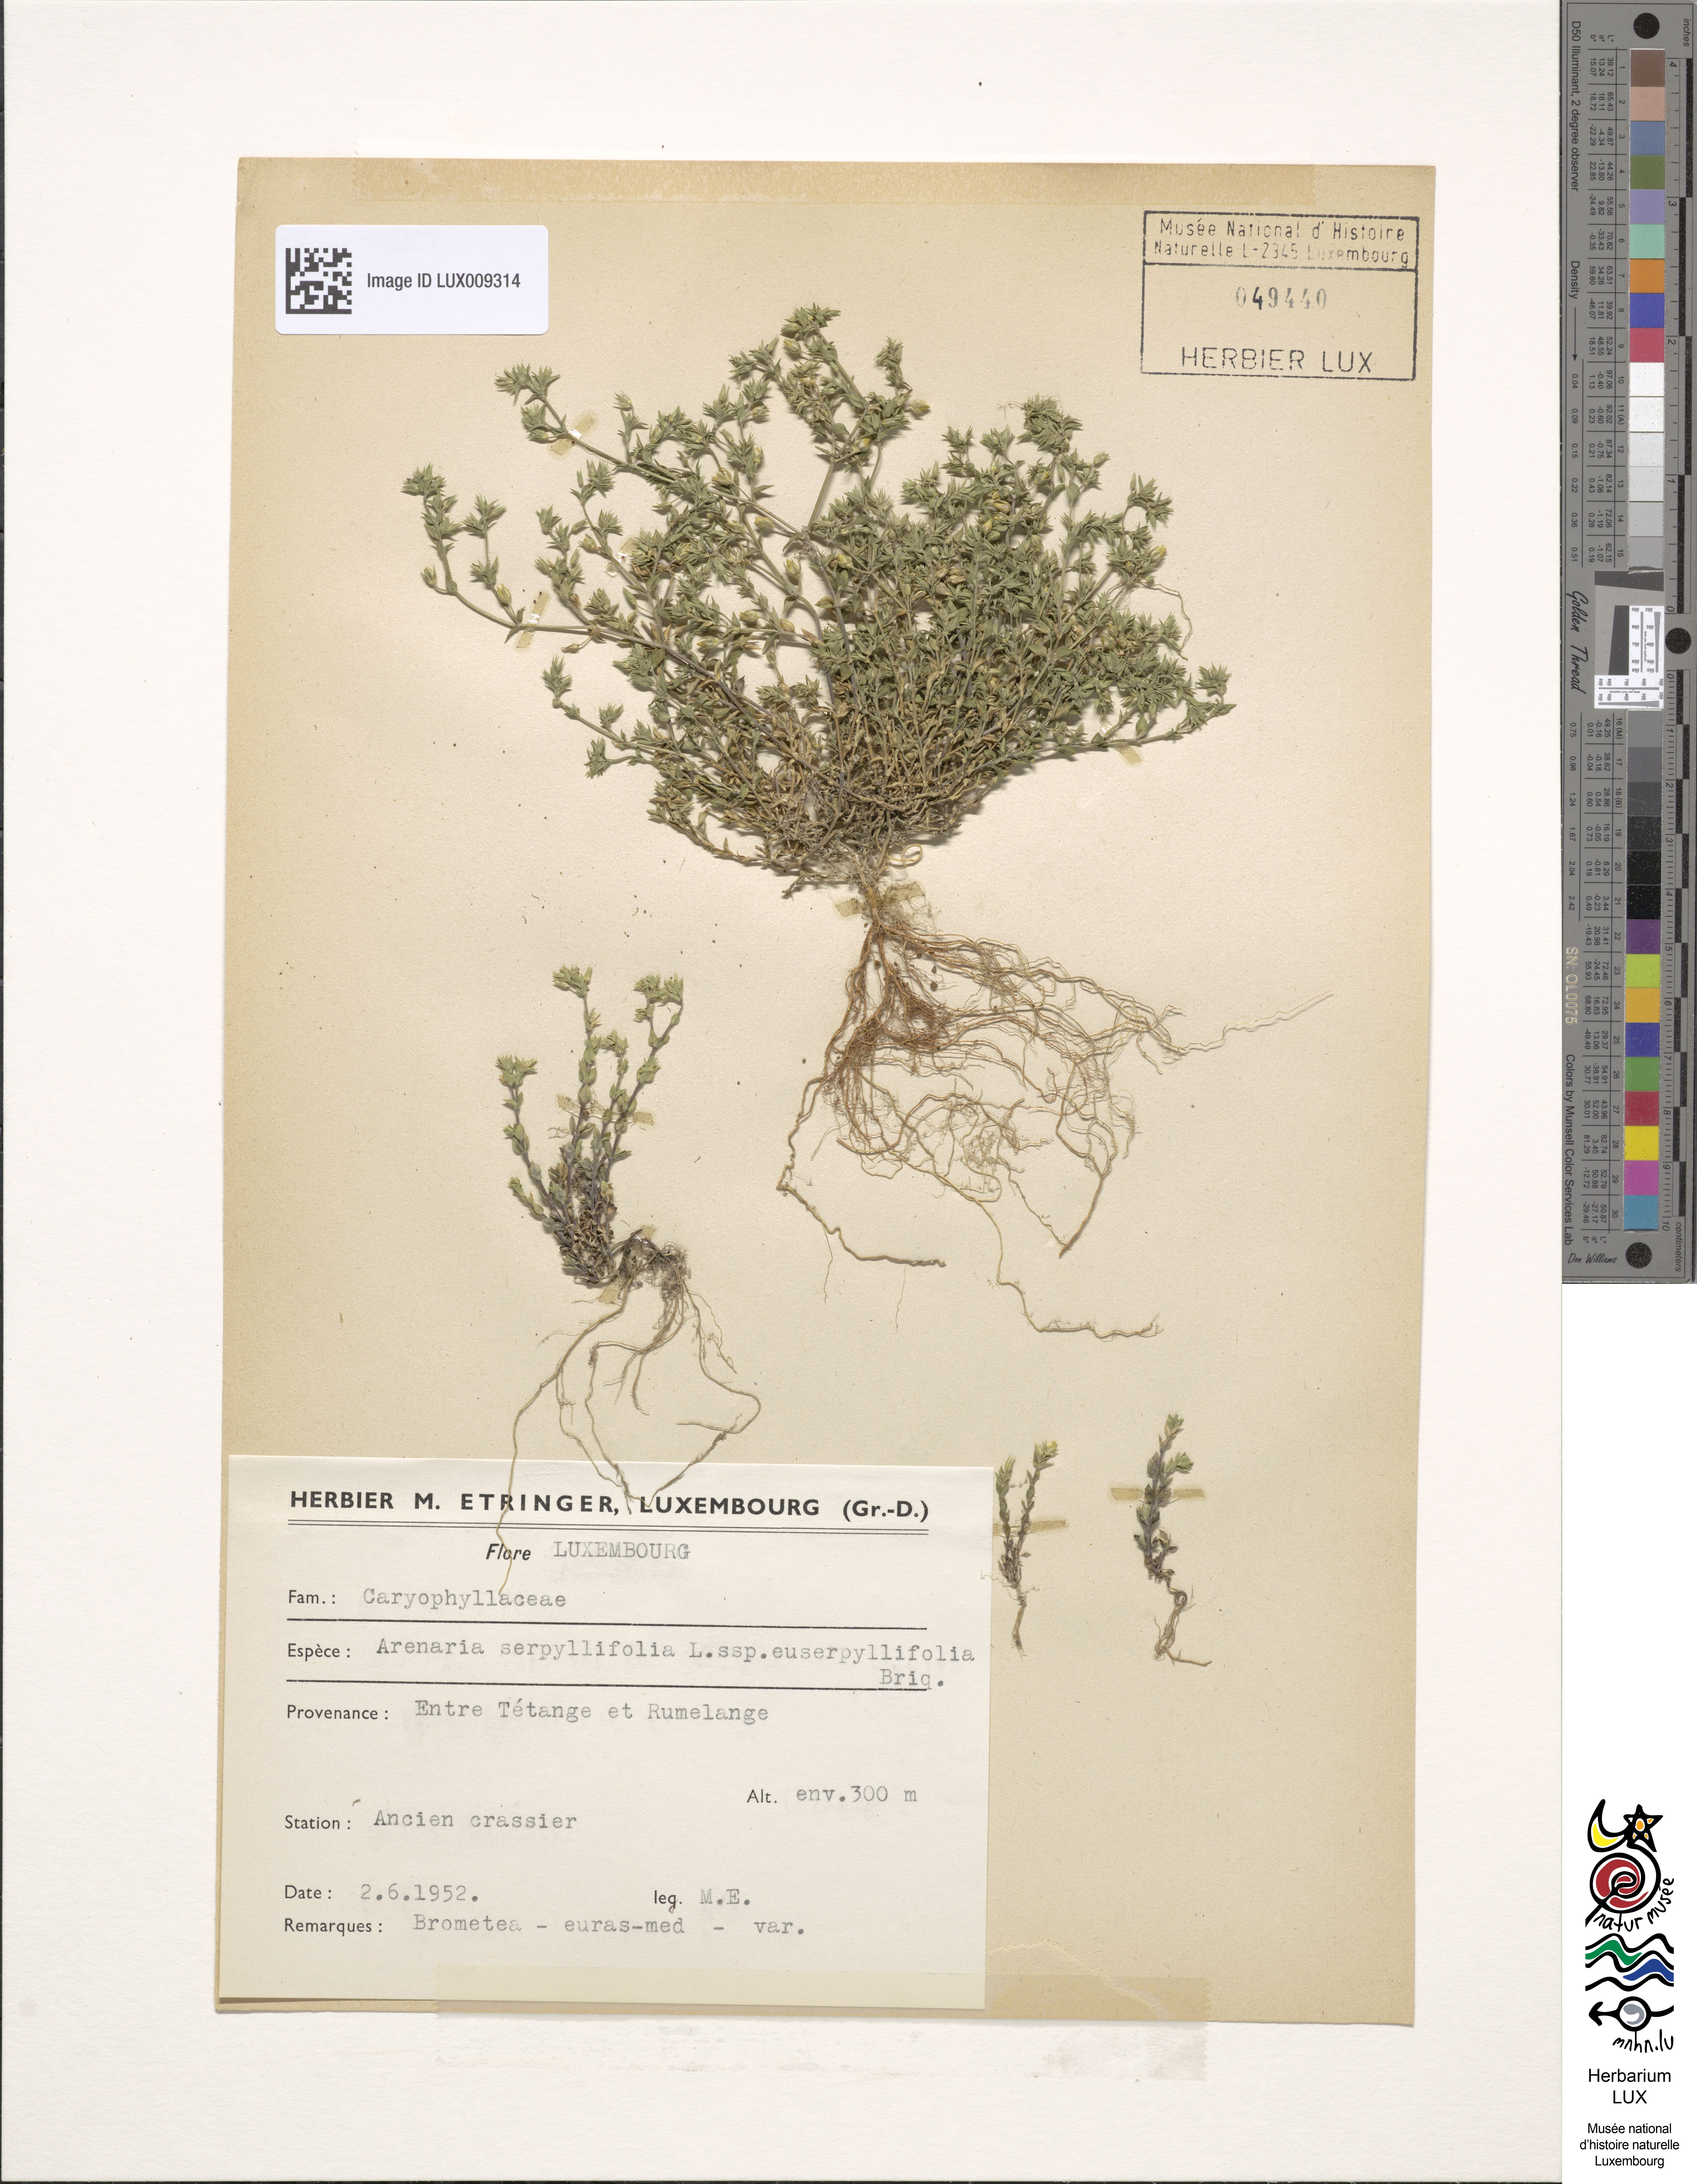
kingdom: Plantae
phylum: Tracheophyta
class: Magnoliopsida
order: Caryophyllales
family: Caryophyllaceae
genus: Arenaria
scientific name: Arenaria serpyllifolia
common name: Thyme-leaved sandwort
